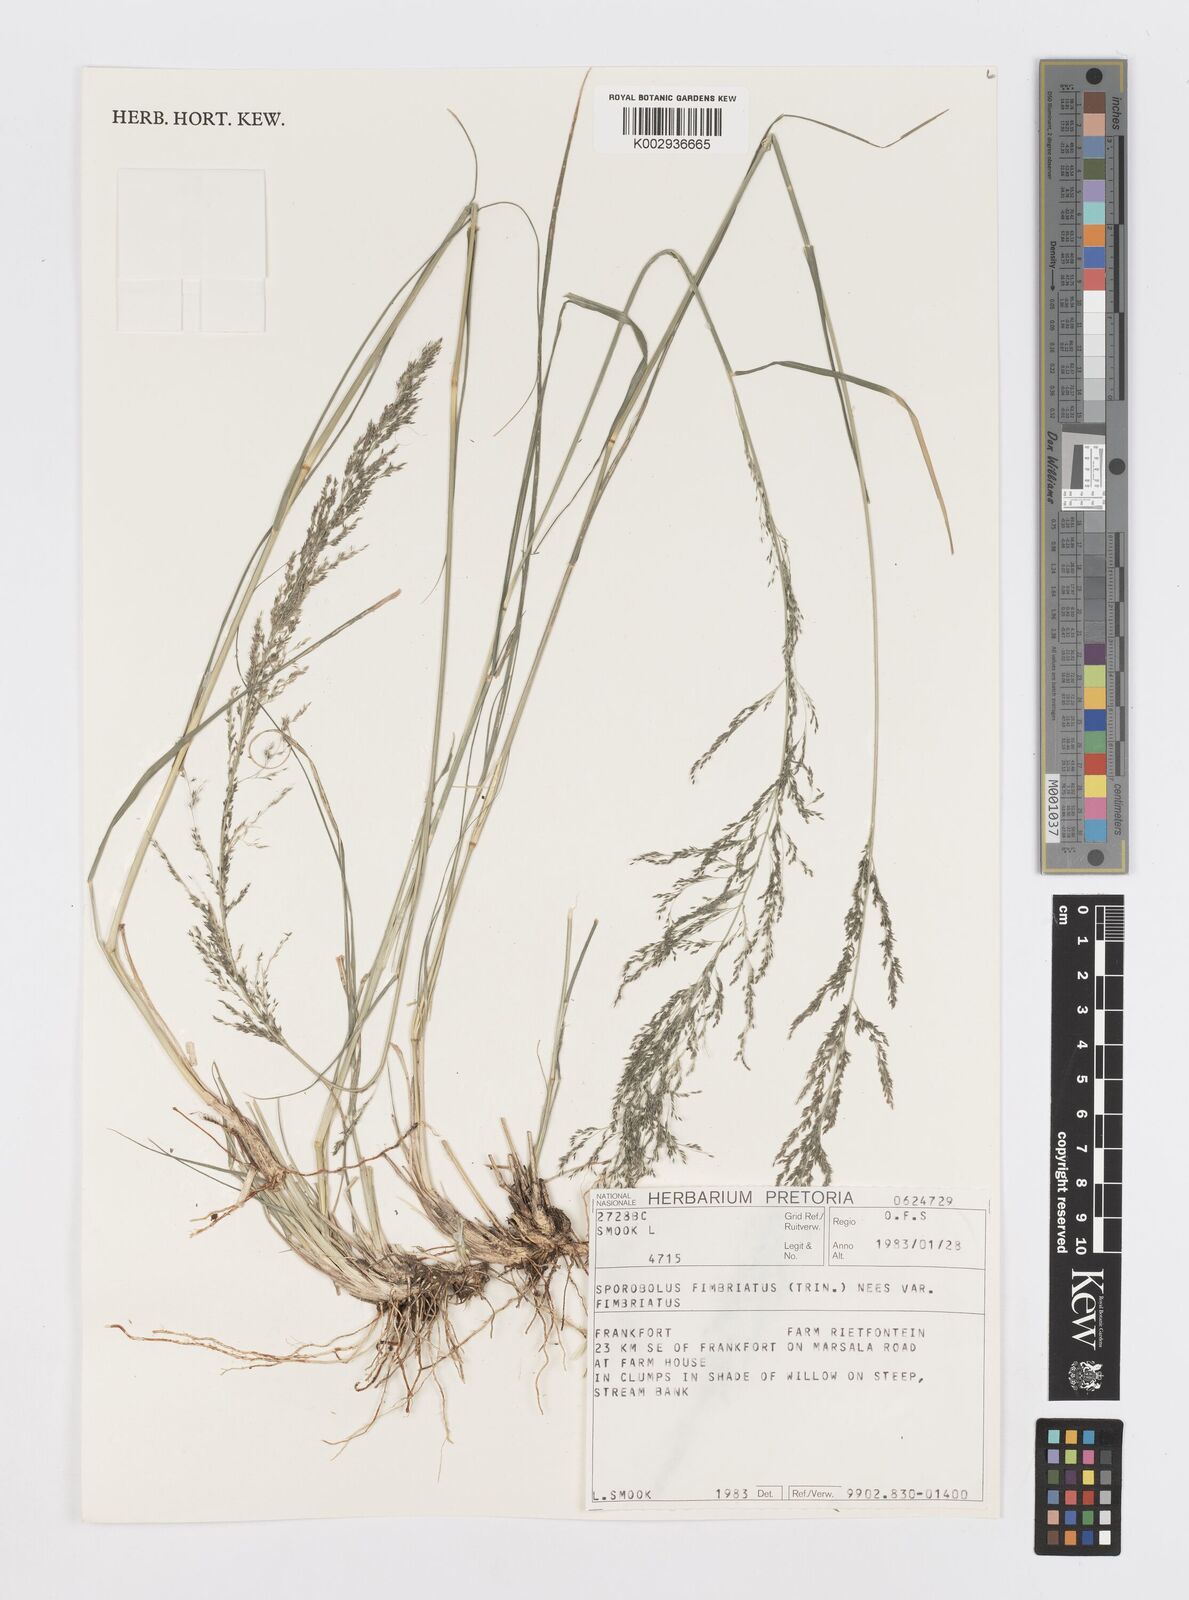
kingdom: Plantae
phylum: Tracheophyta
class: Liliopsida
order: Poales
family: Poaceae
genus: Sporobolus
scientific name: Sporobolus fimbriatus
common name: Fringed dropseed
